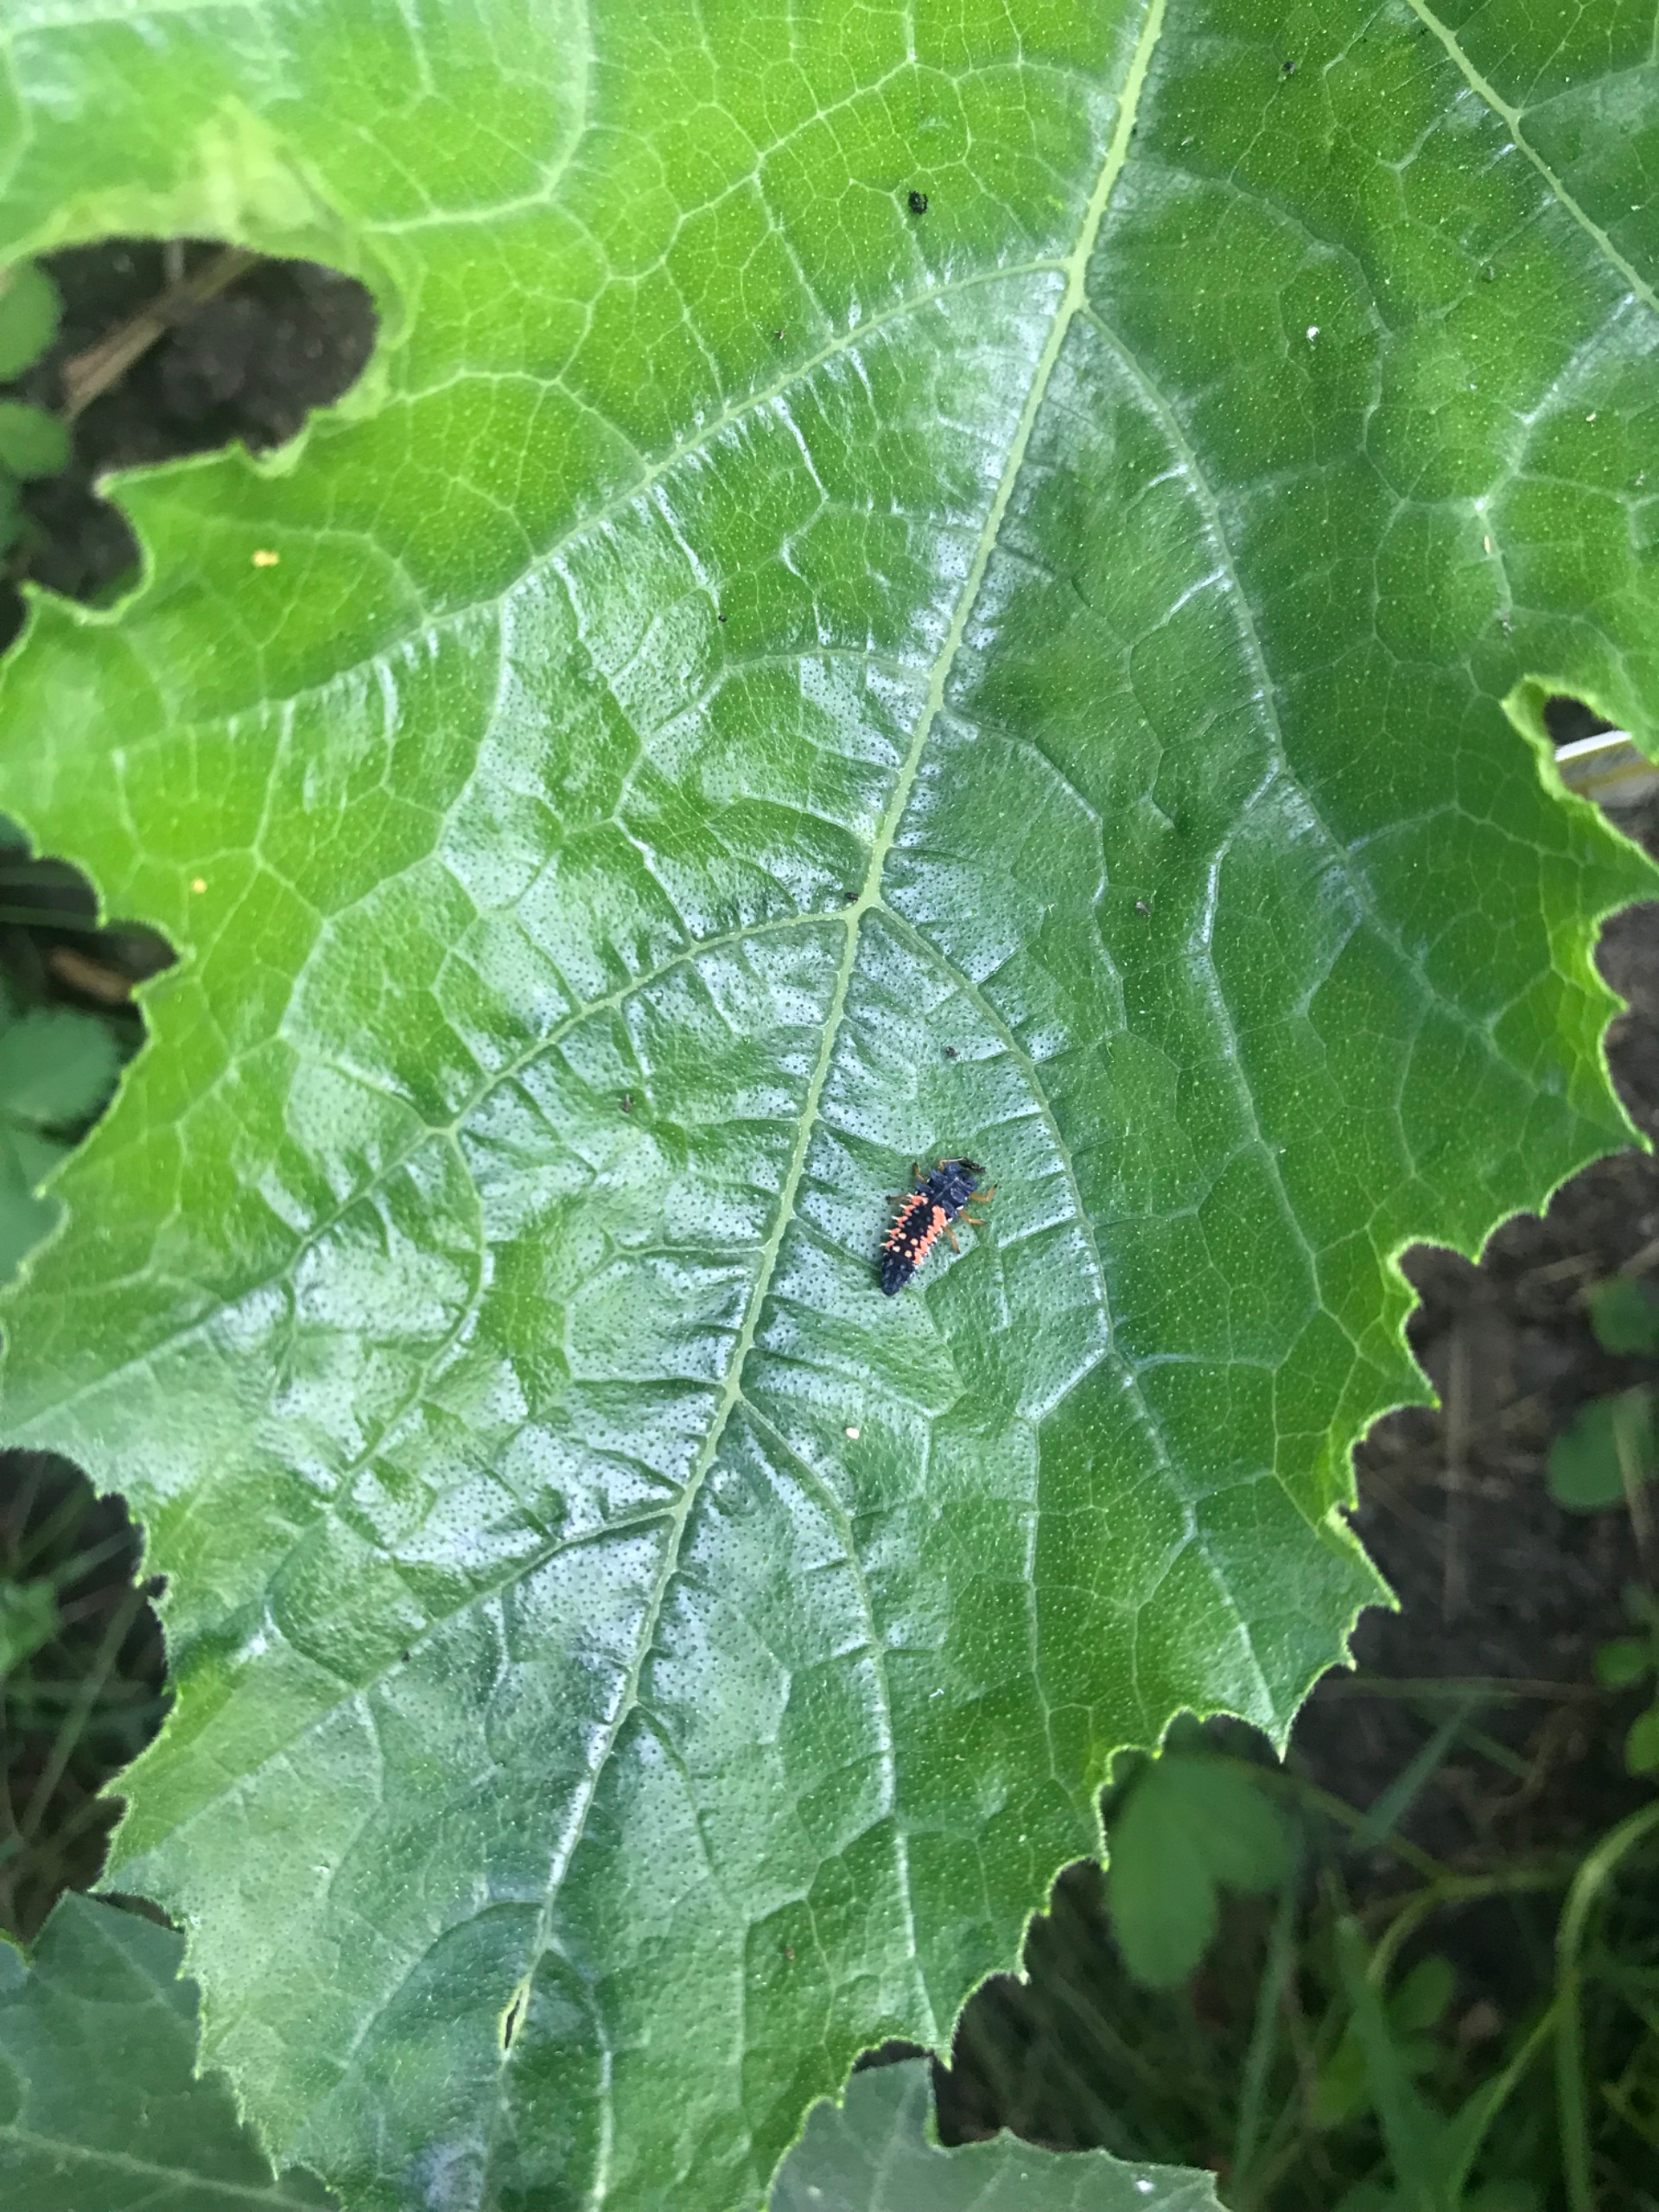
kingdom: Animalia
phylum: Arthropoda
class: Insecta
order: Coleoptera
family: Coccinellidae
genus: Harmonia
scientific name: Harmonia axyridis
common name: Harlekinmariehøne
